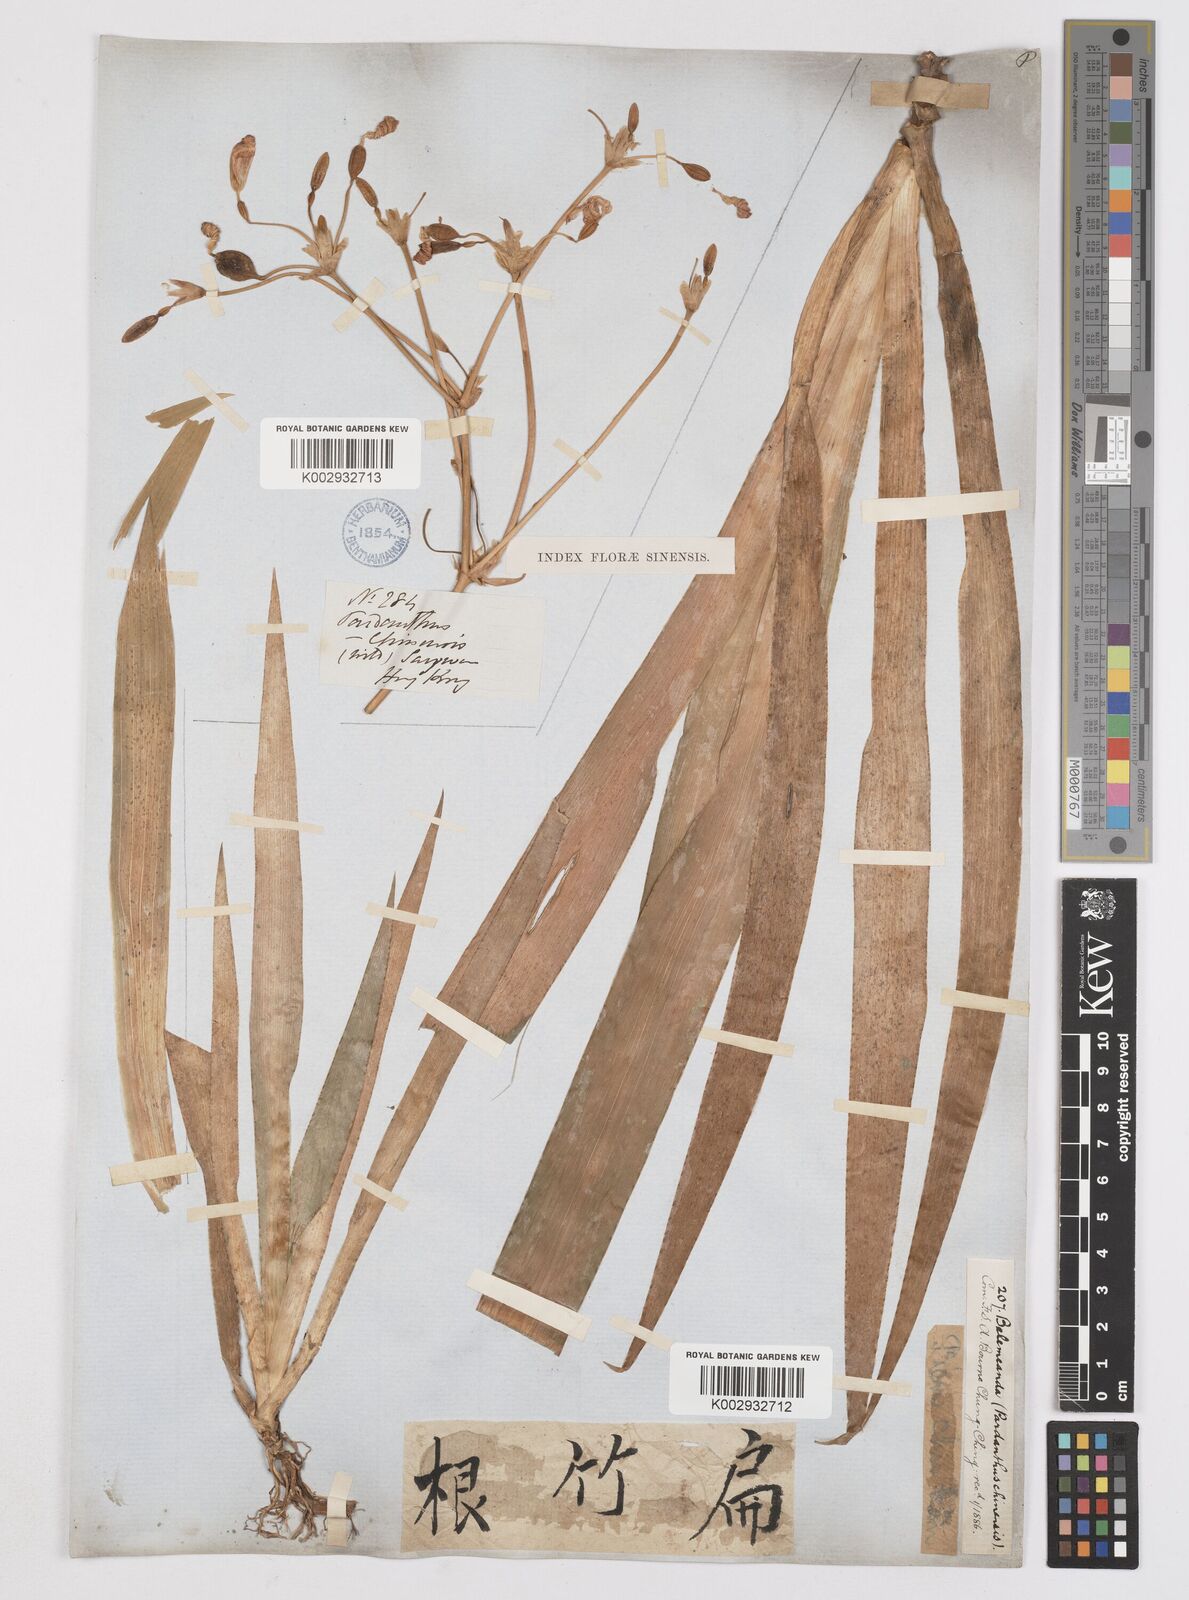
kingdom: Plantae
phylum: Tracheophyta
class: Liliopsida
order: Asparagales
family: Iridaceae
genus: Iris
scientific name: Iris
